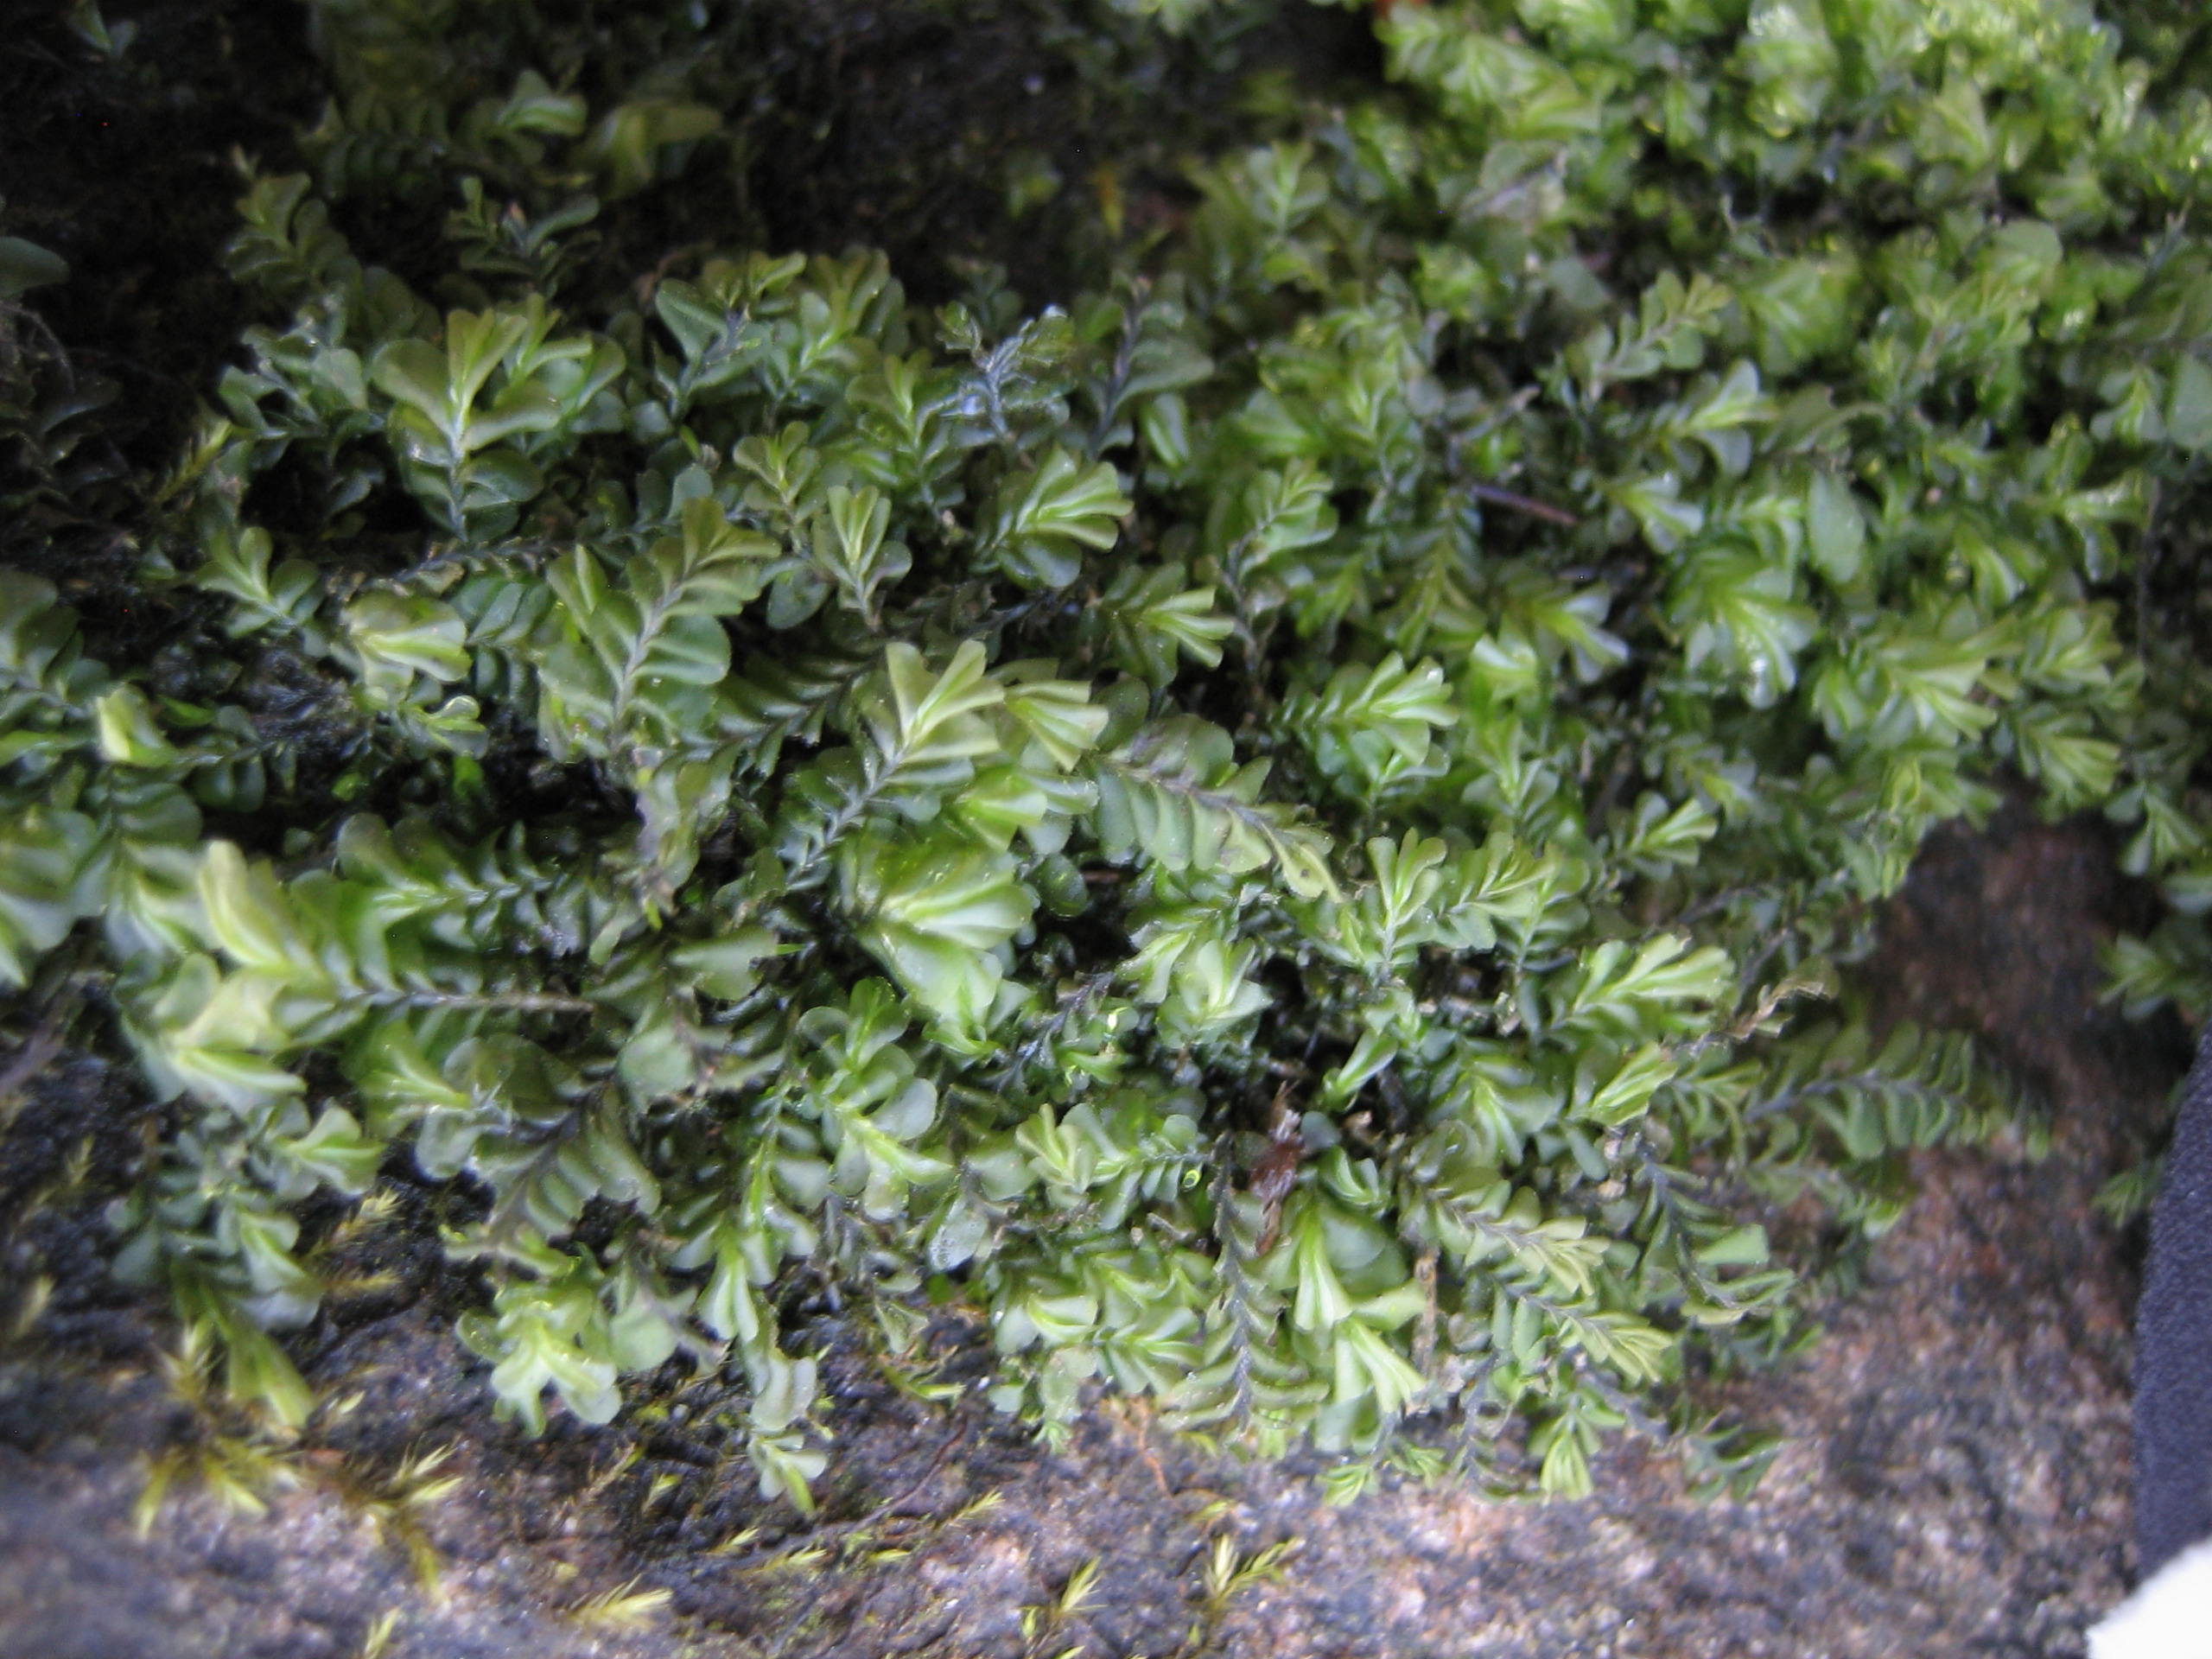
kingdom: Plantae
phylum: Marchantiophyta
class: Jungermanniopsida
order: Jungermanniales
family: Plagiochilaceae
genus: Plagiochila
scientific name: Plagiochila asplenioides
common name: Radeløv-hindeblad
